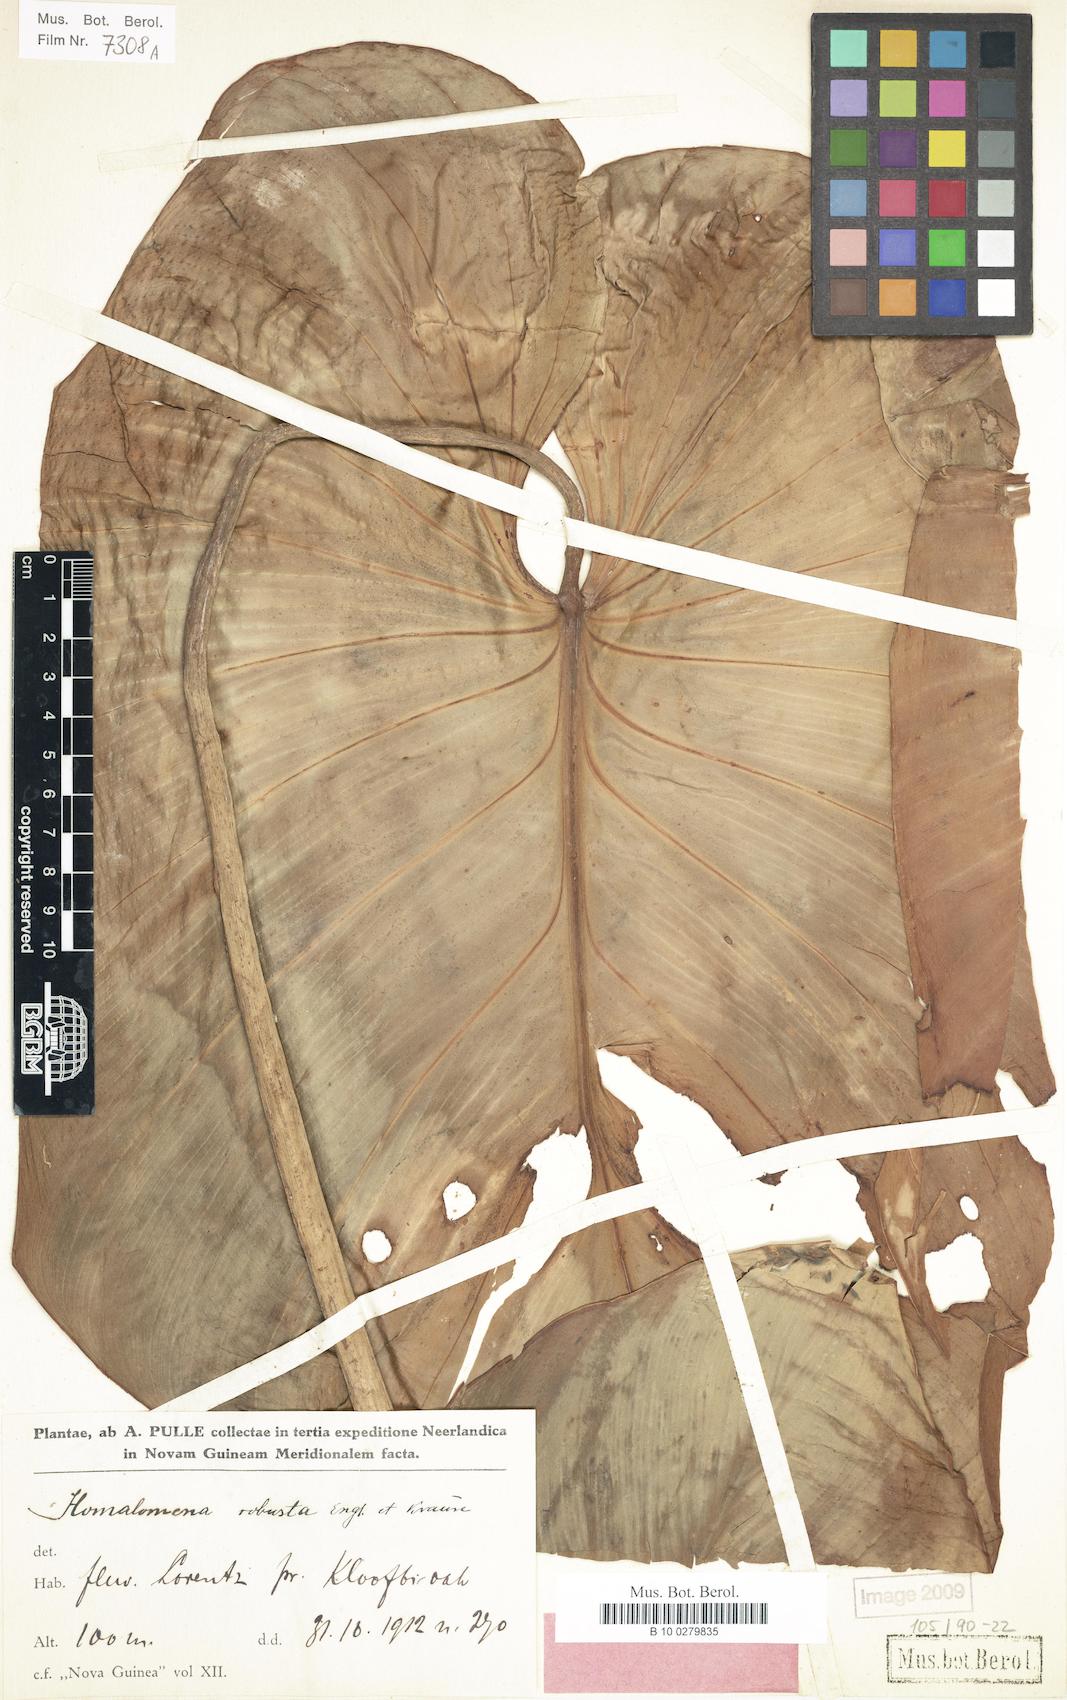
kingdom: Plantae
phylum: Tracheophyta
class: Liliopsida
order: Alismatales
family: Araceae
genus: Homalomena
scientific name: Homalomena robusta
